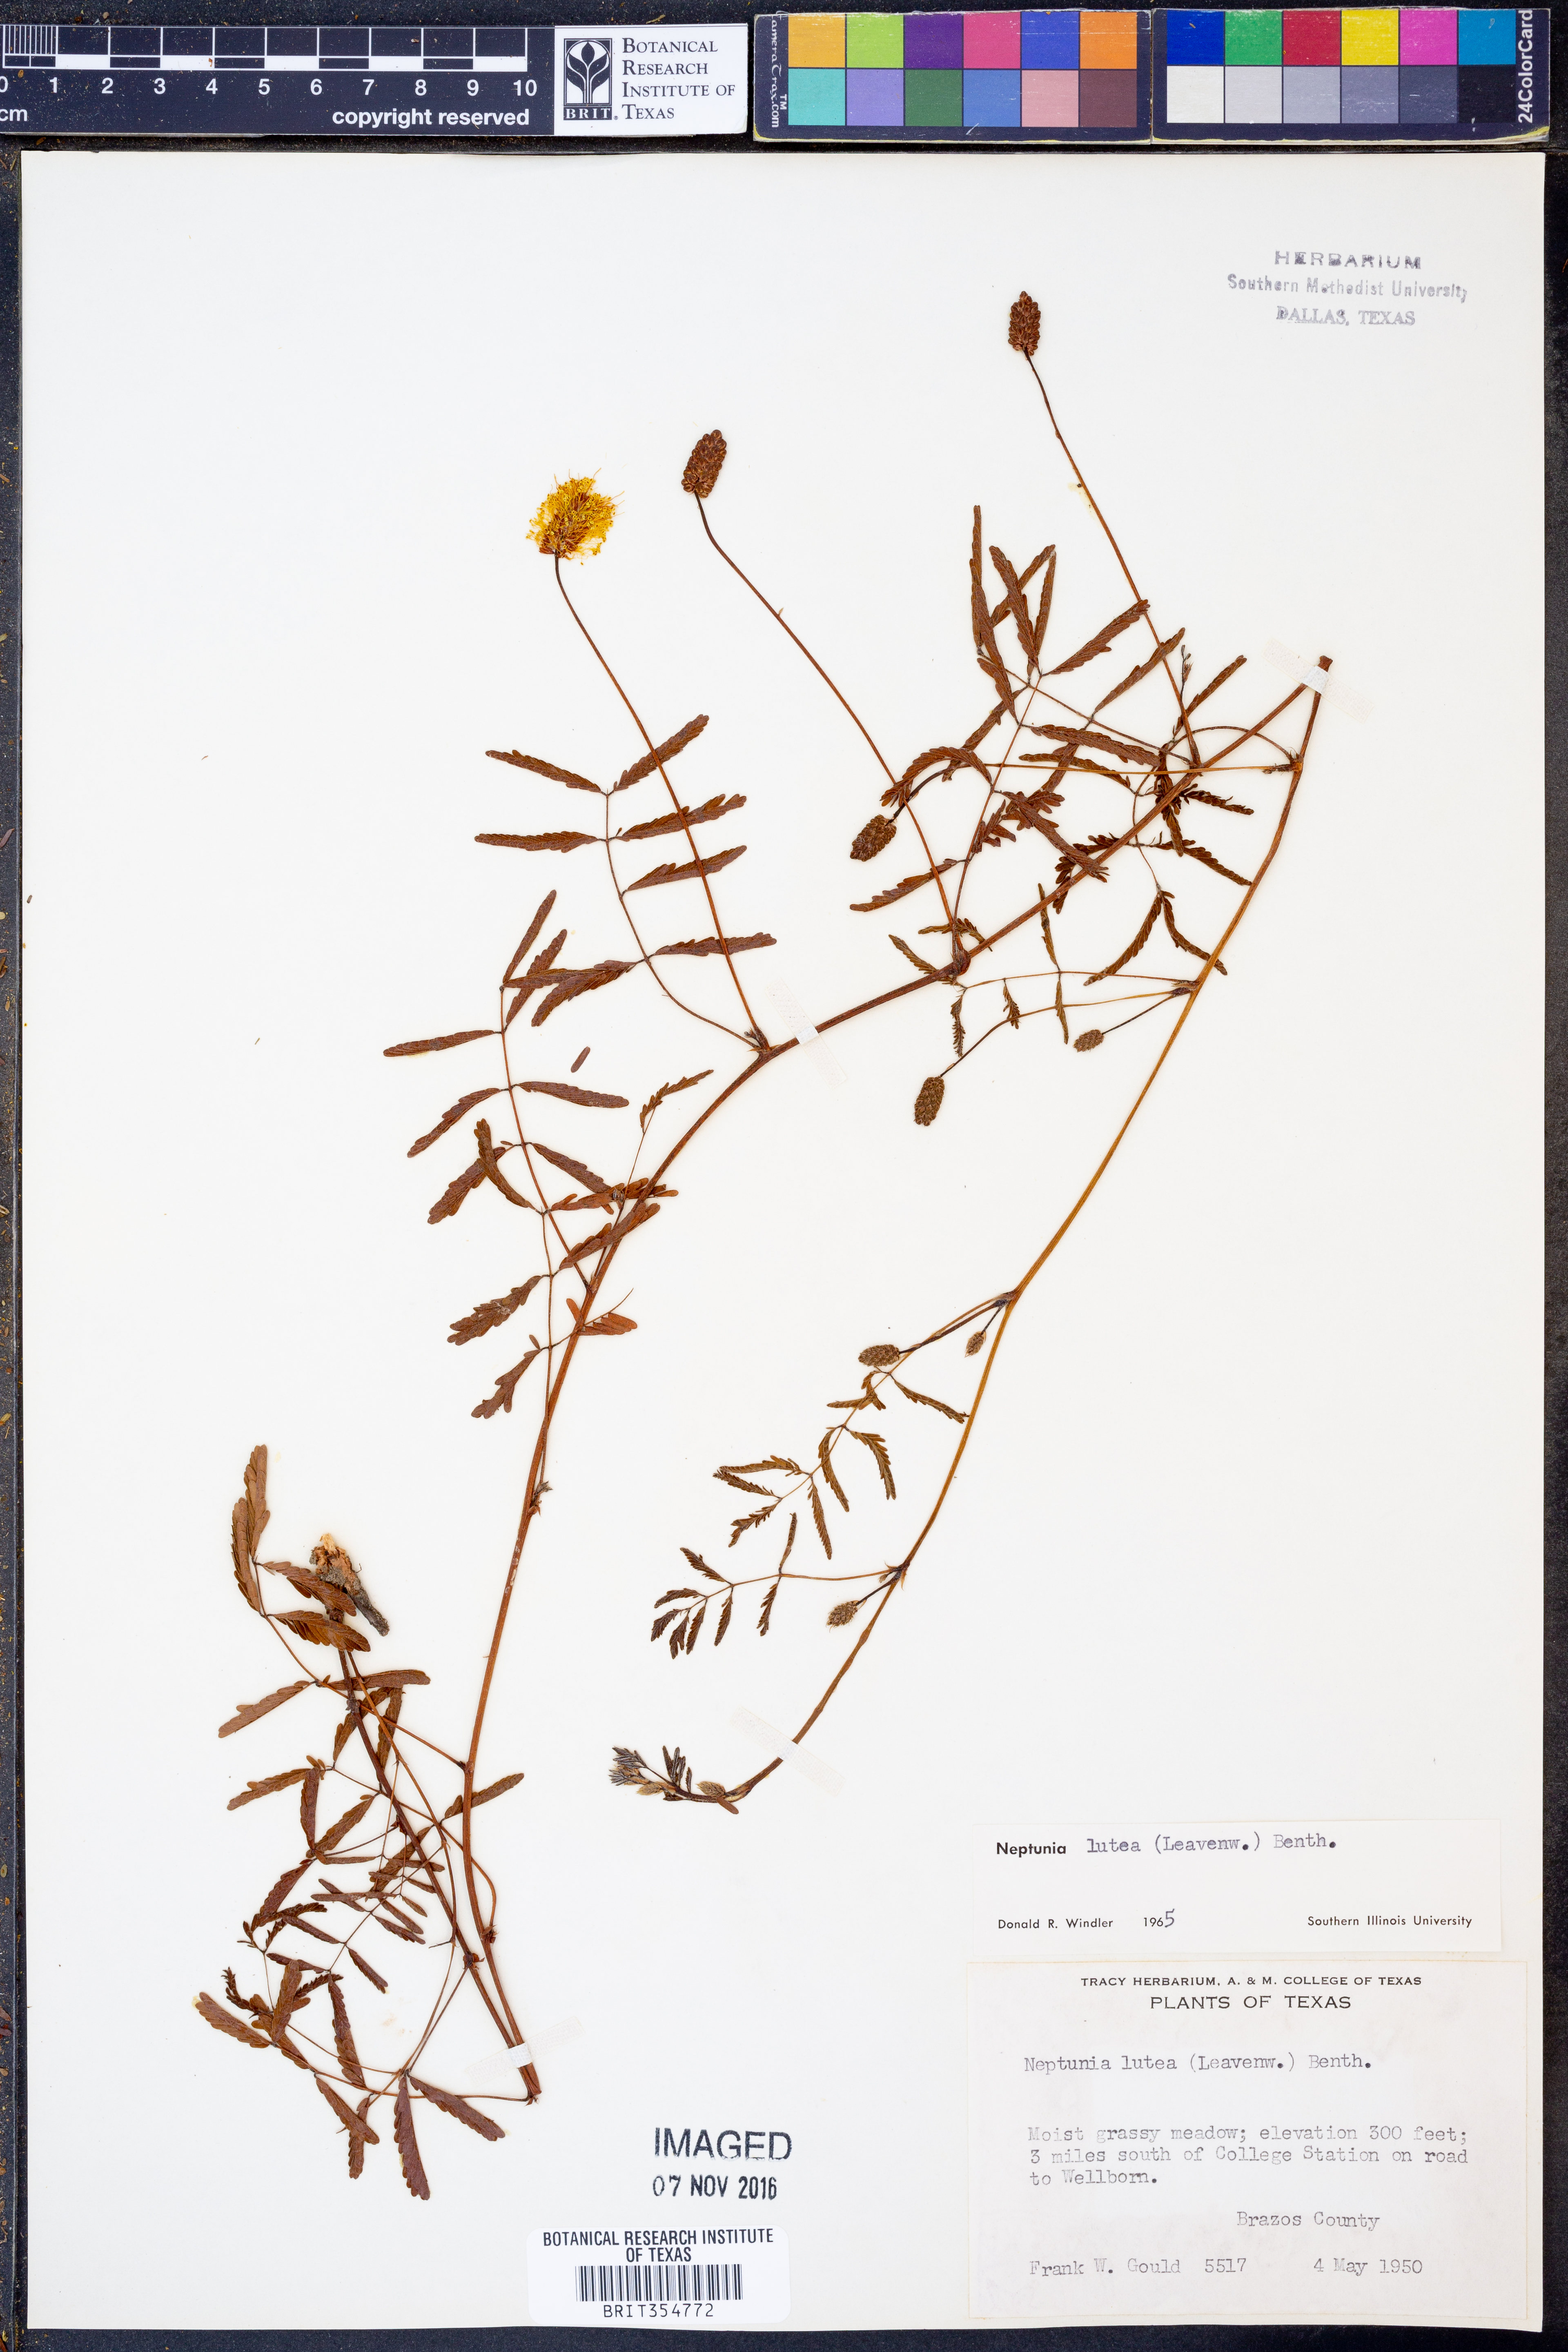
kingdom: Plantae
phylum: Tracheophyta
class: Magnoliopsida
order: Fabales
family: Fabaceae
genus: Neptunia
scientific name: Neptunia lutea
